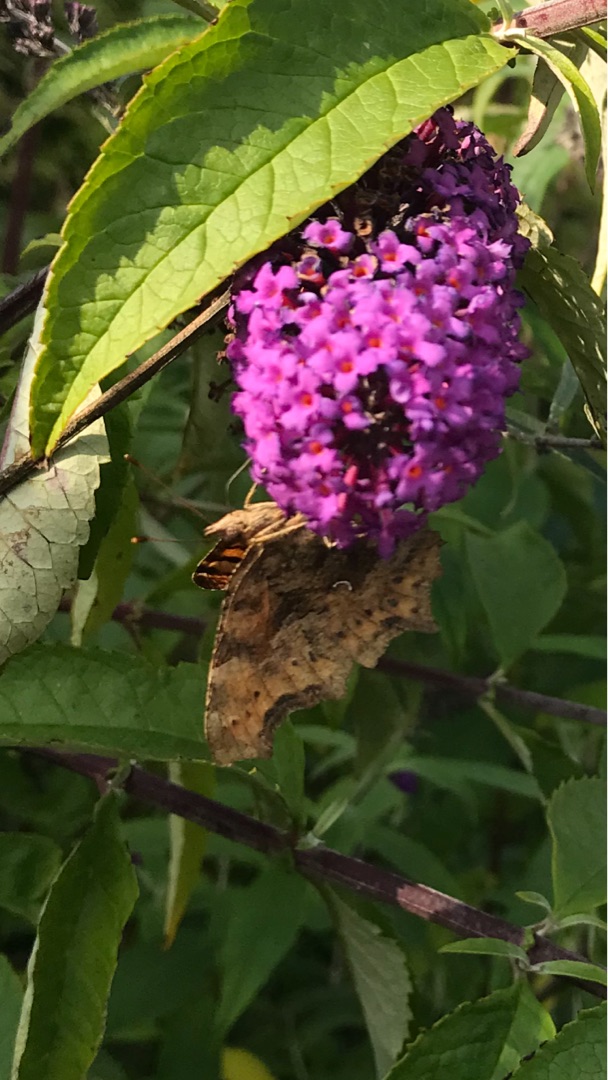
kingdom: Animalia
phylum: Arthropoda
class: Insecta
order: Lepidoptera
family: Nymphalidae
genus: Polygonia
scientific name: Polygonia c-album
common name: Det hvide C
